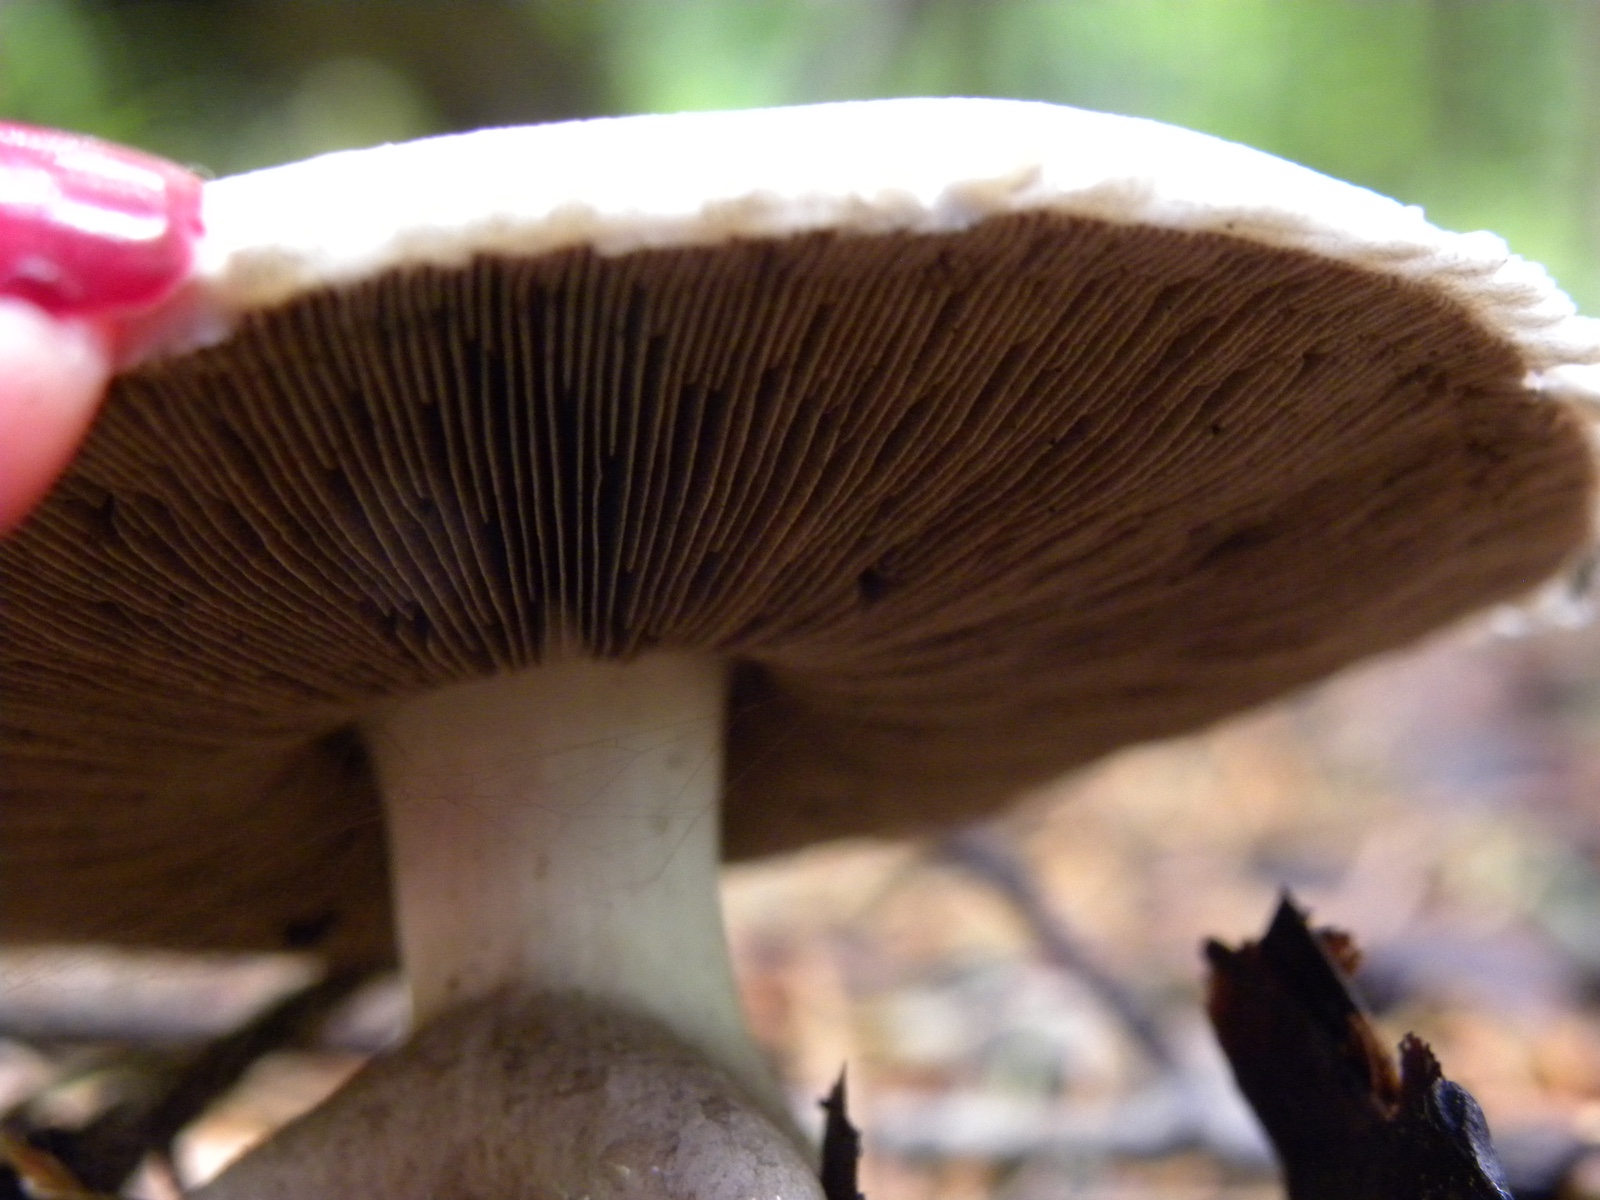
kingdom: Fungi
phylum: Basidiomycota
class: Agaricomycetes
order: Agaricales
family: Agaricaceae
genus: Agaricus
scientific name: Agaricus
